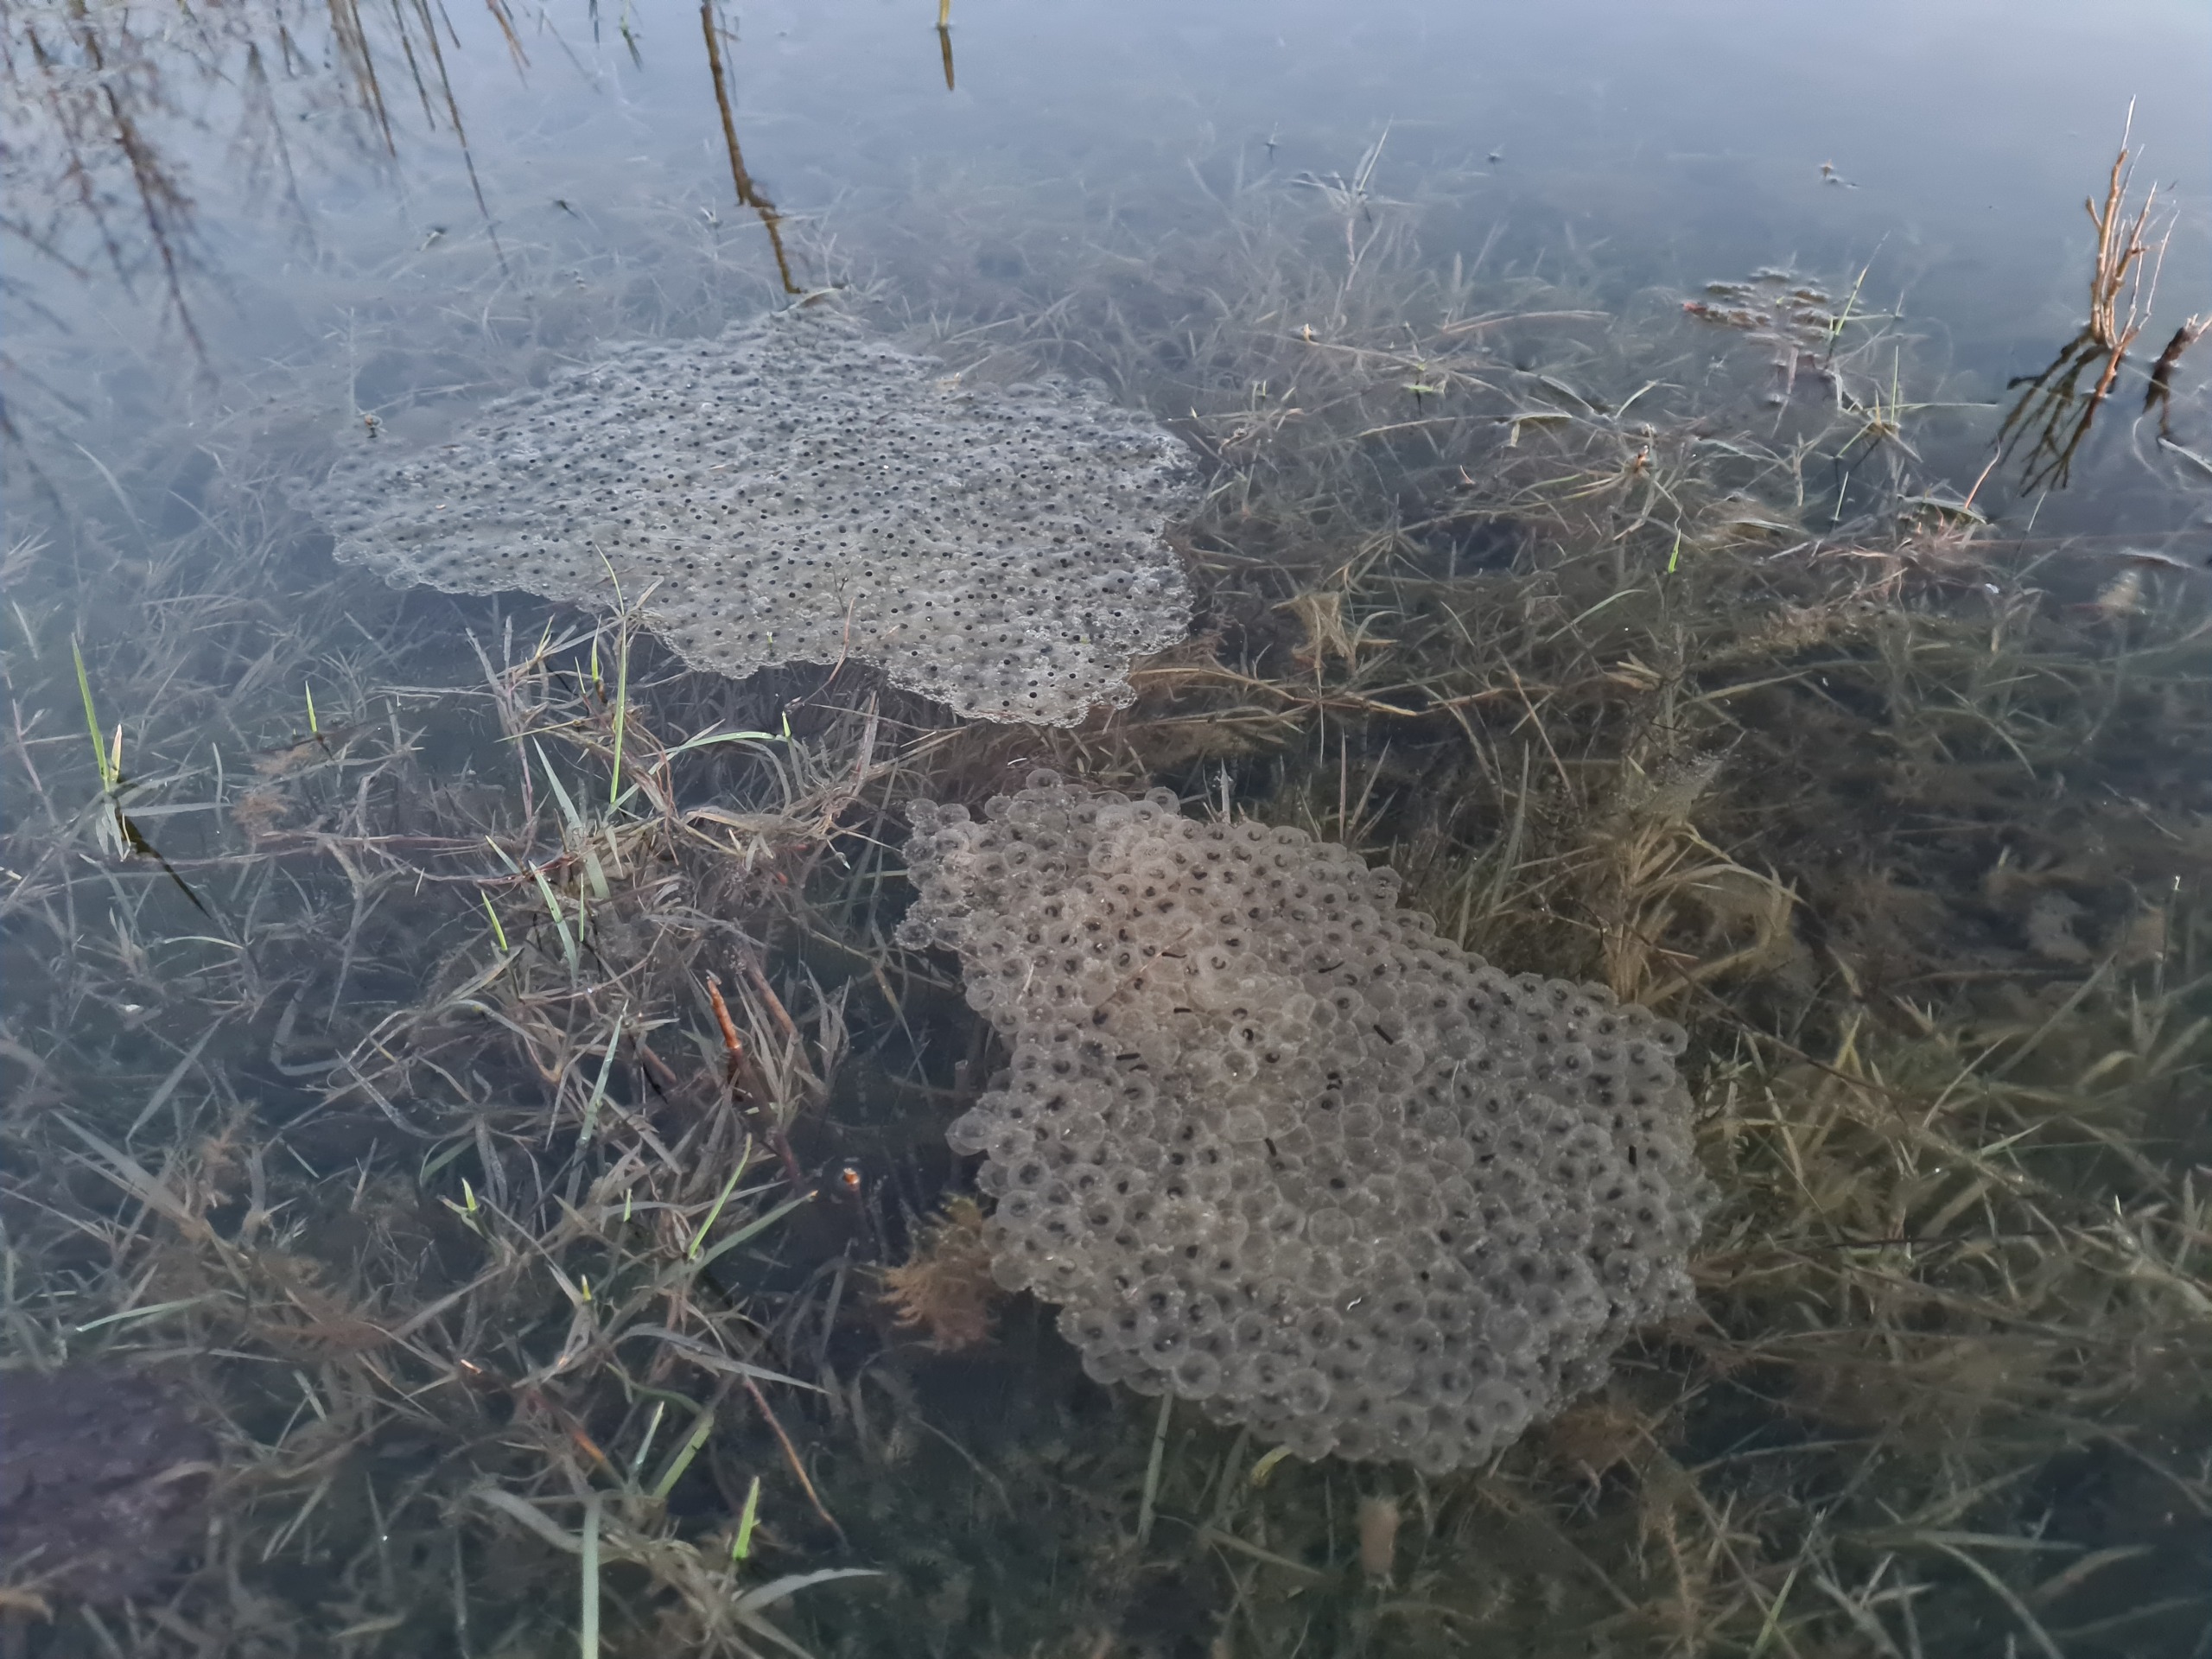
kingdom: Animalia
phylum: Chordata
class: Amphibia
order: Anura
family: Ranidae
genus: Rana
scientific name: Rana temporaria
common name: Butsnudet frø
